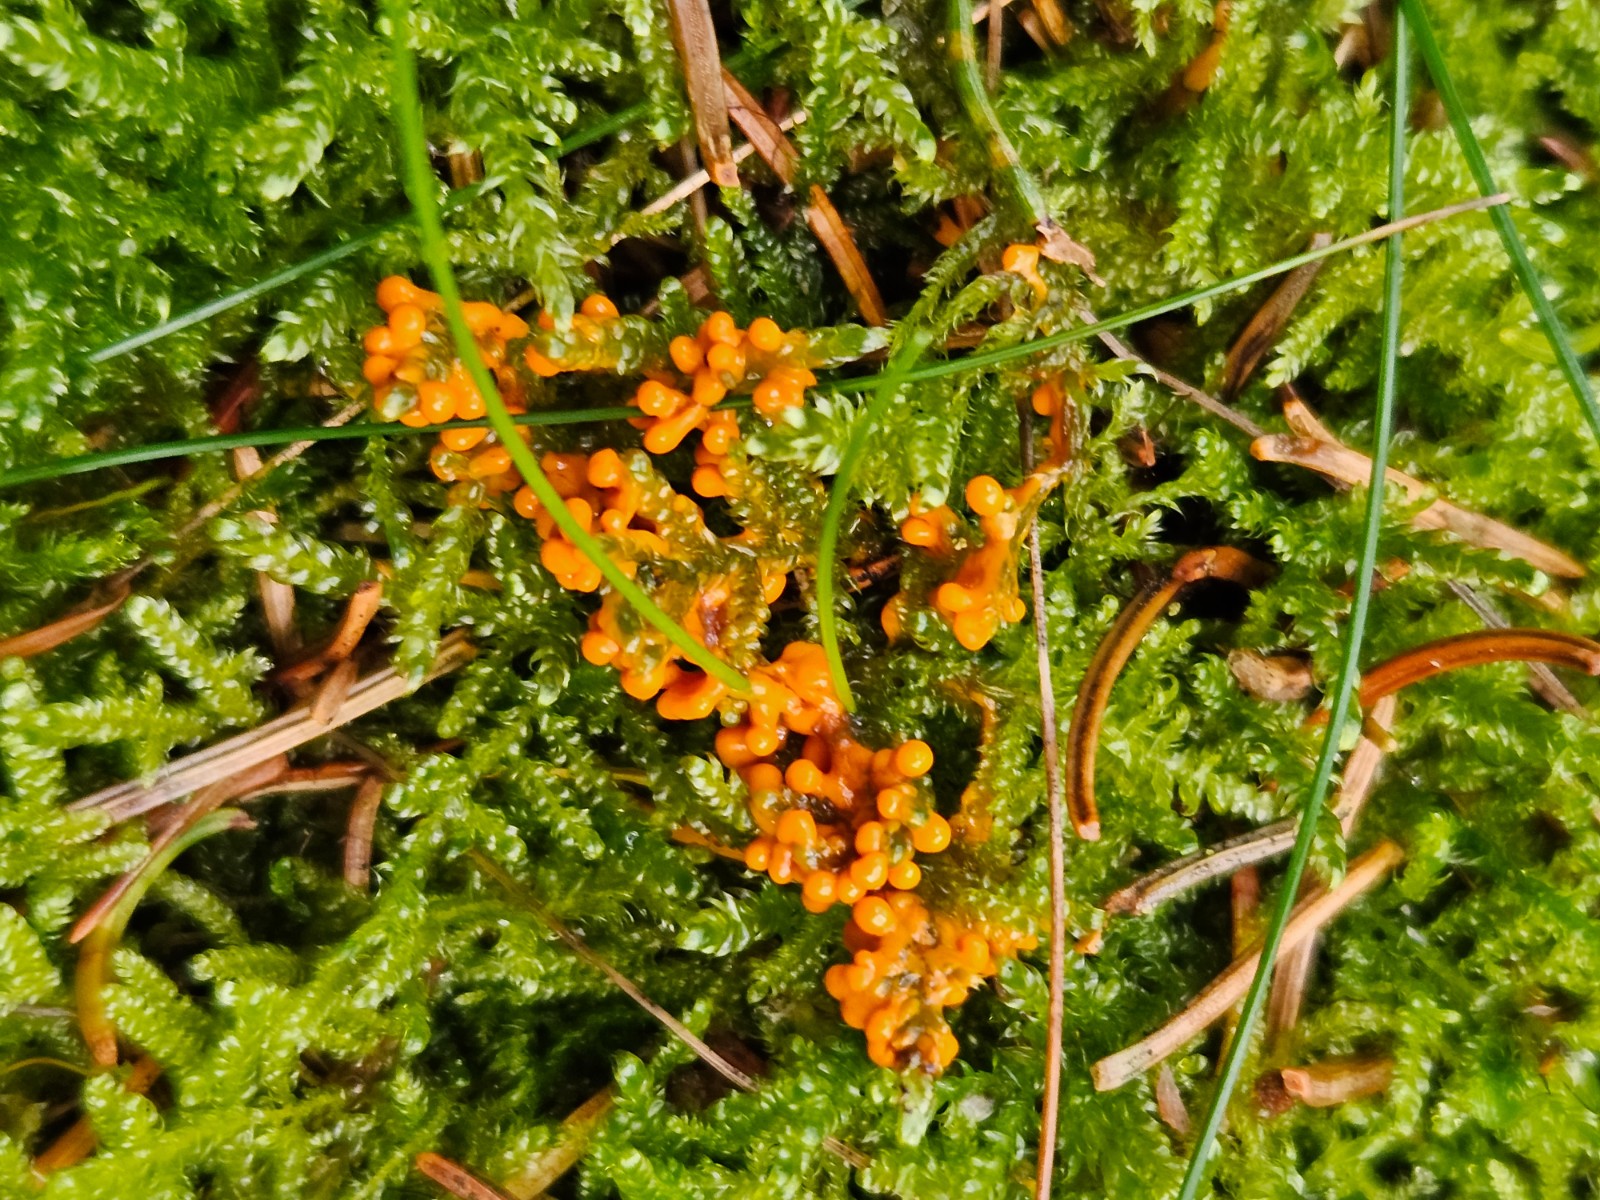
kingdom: Protozoa
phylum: Mycetozoa
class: Myxomycetes
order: Physarales
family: Physaraceae
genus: Leocarpus
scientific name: Leocarpus fragilis
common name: poleret glatfrø
